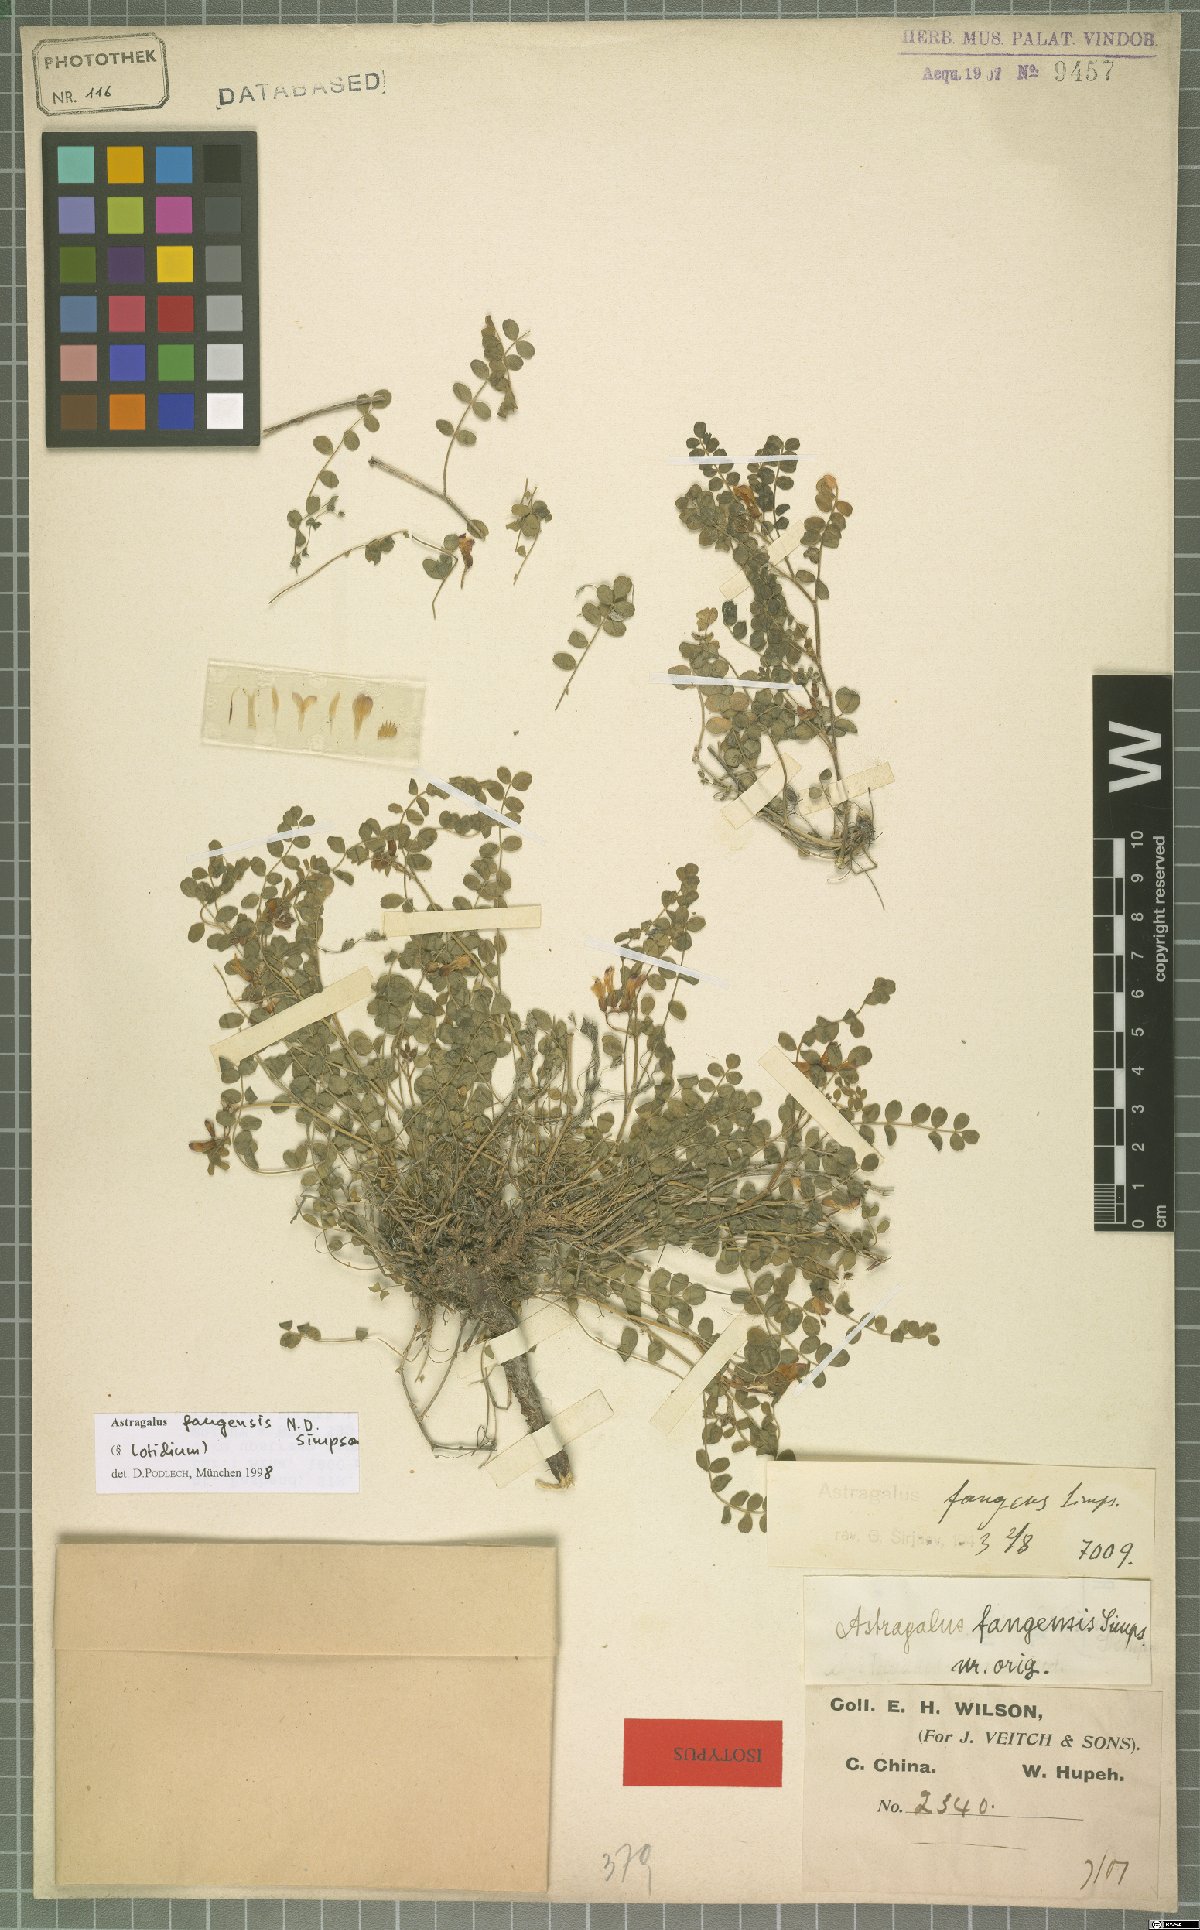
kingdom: Plantae
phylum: Tracheophyta
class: Magnoliopsida
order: Fabales
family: Fabaceae
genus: Astragalus
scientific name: Astragalus fangensis
